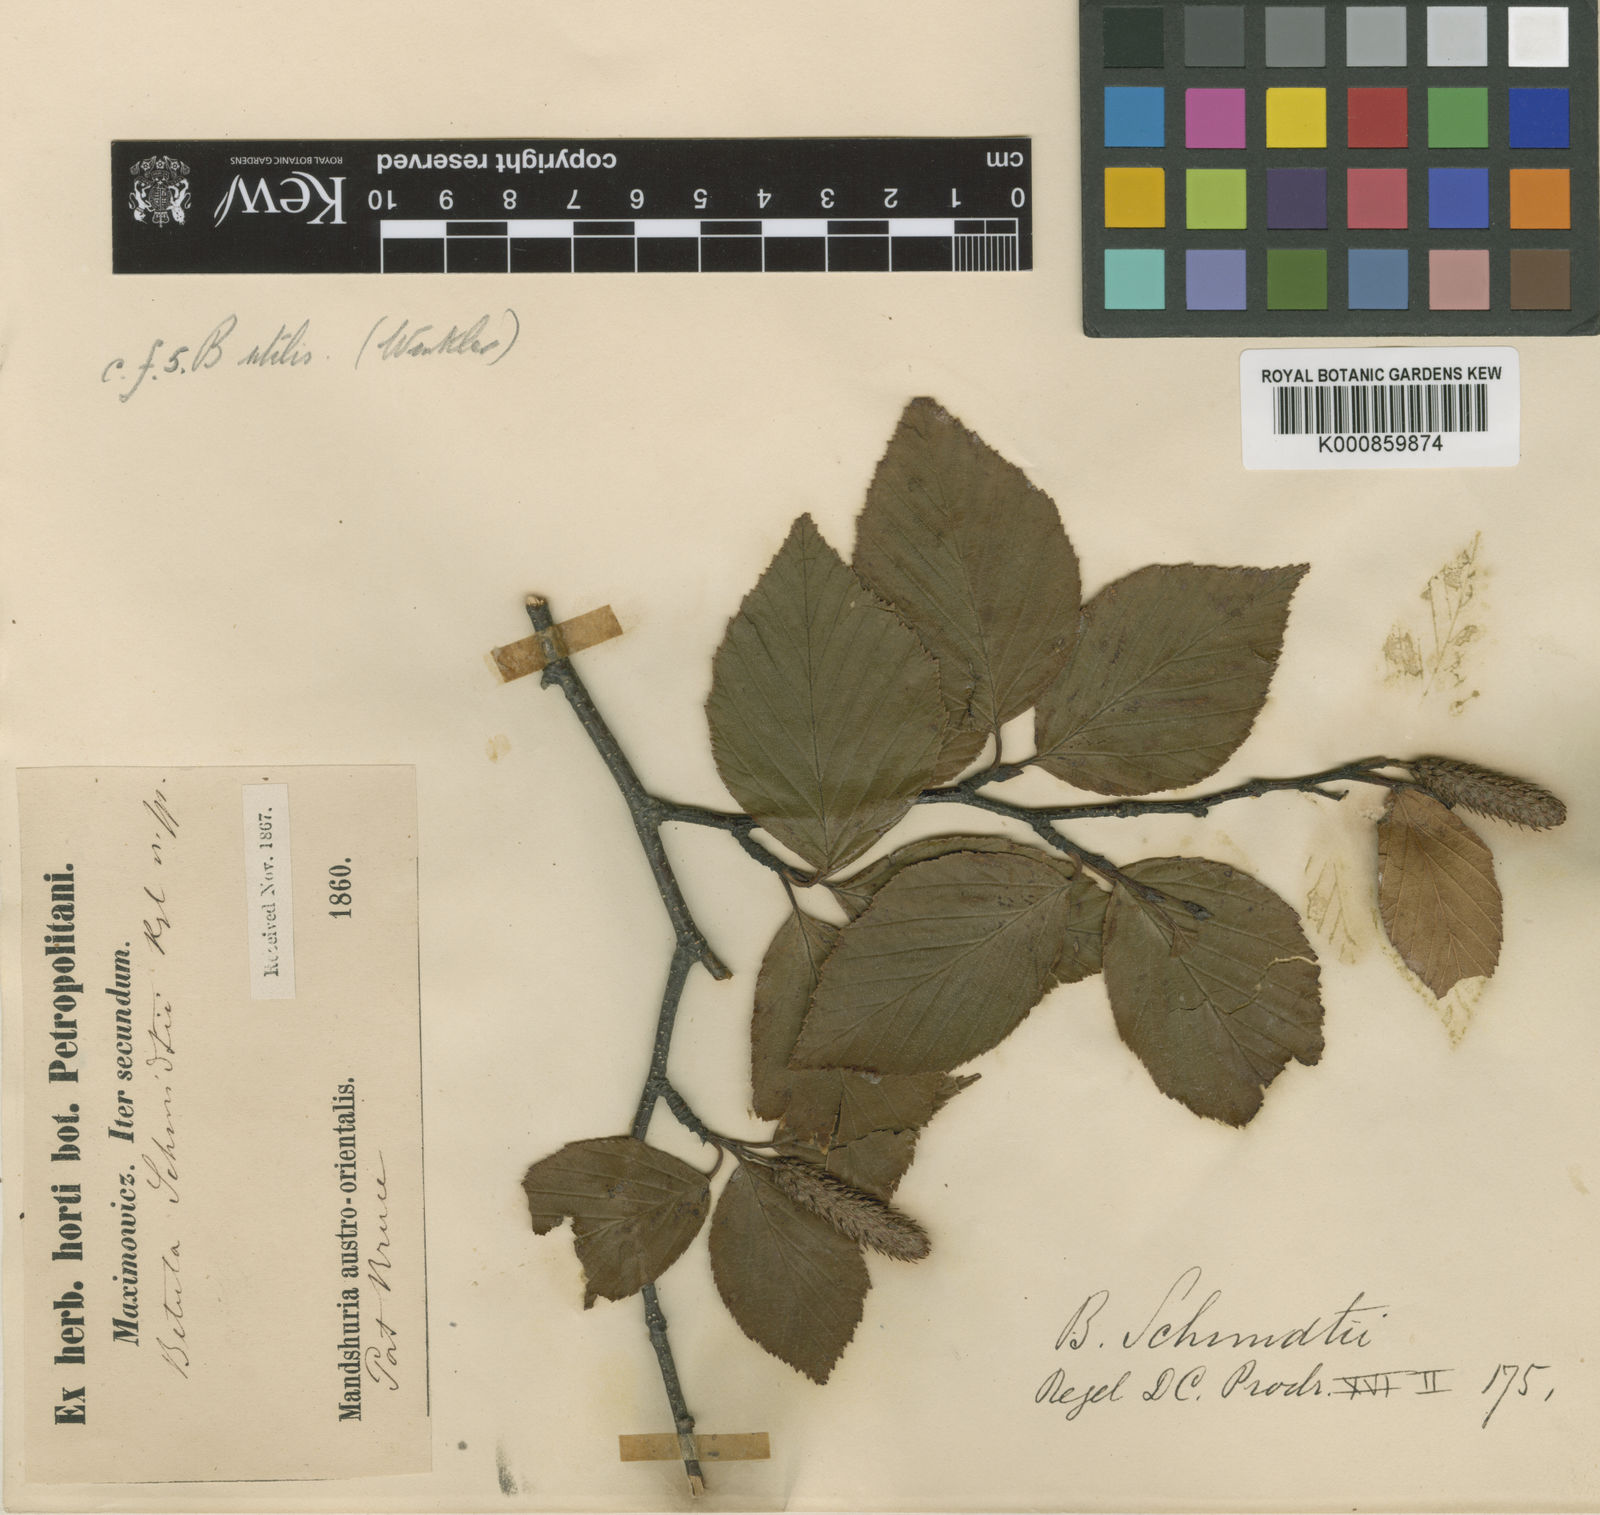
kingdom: Plantae
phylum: Tracheophyta
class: Magnoliopsida
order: Fagales
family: Betulaceae
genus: Betula
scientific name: Betula schmidtii
